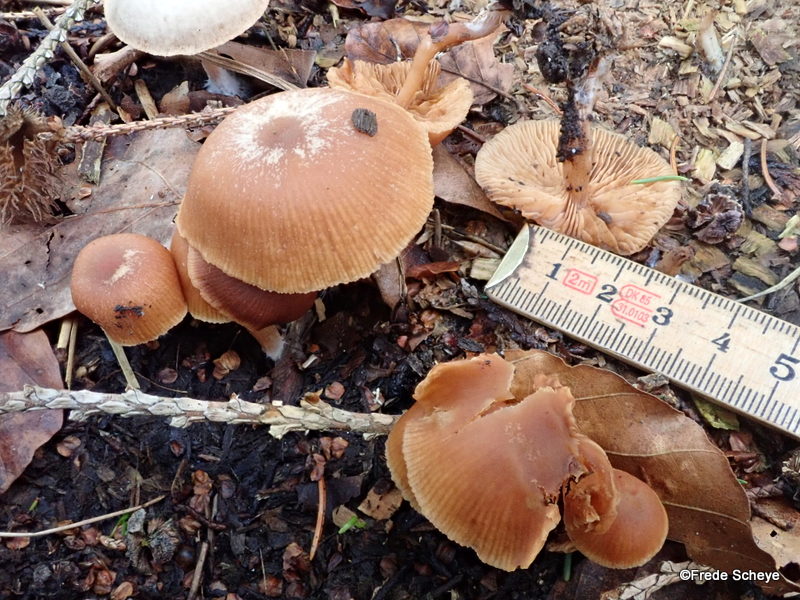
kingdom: Fungi
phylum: Basidiomycota
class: Agaricomycetes
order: Agaricales
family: Tubariaceae
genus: Tubaria
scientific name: Tubaria furfuracea
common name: kliddet fnughat
